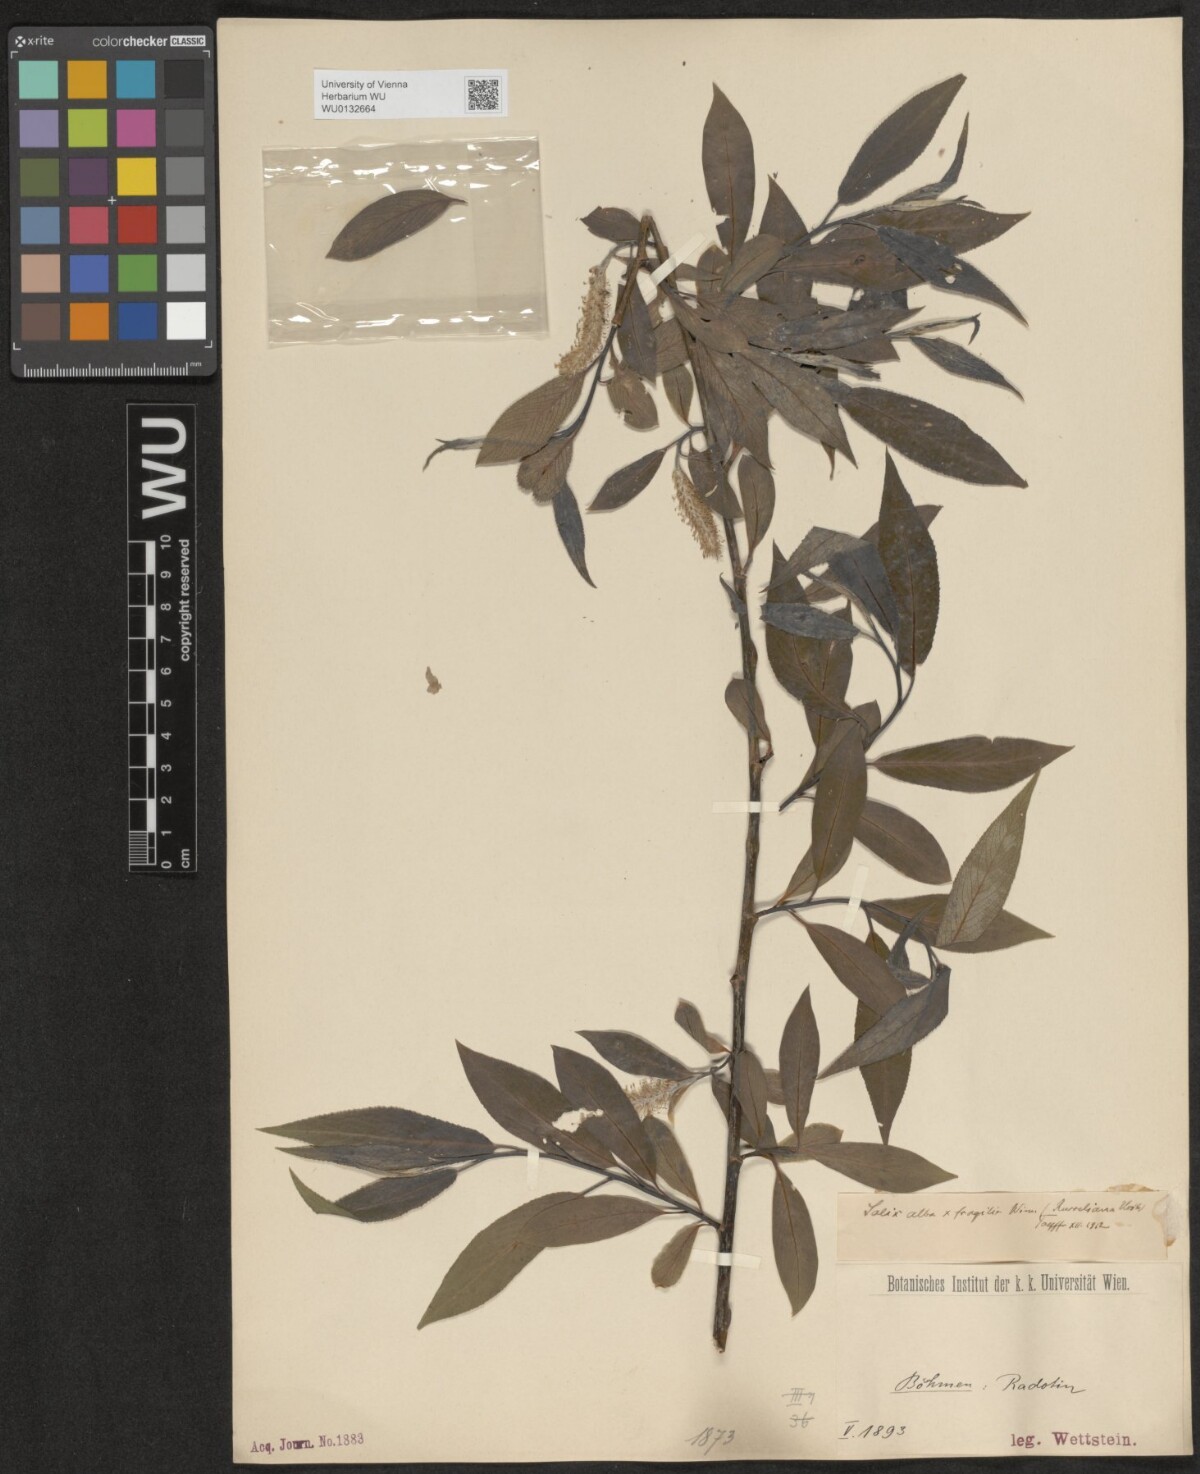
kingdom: Plantae
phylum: Tracheophyta
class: Magnoliopsida
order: Malpighiales
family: Salicaceae
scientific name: Salicaceae
